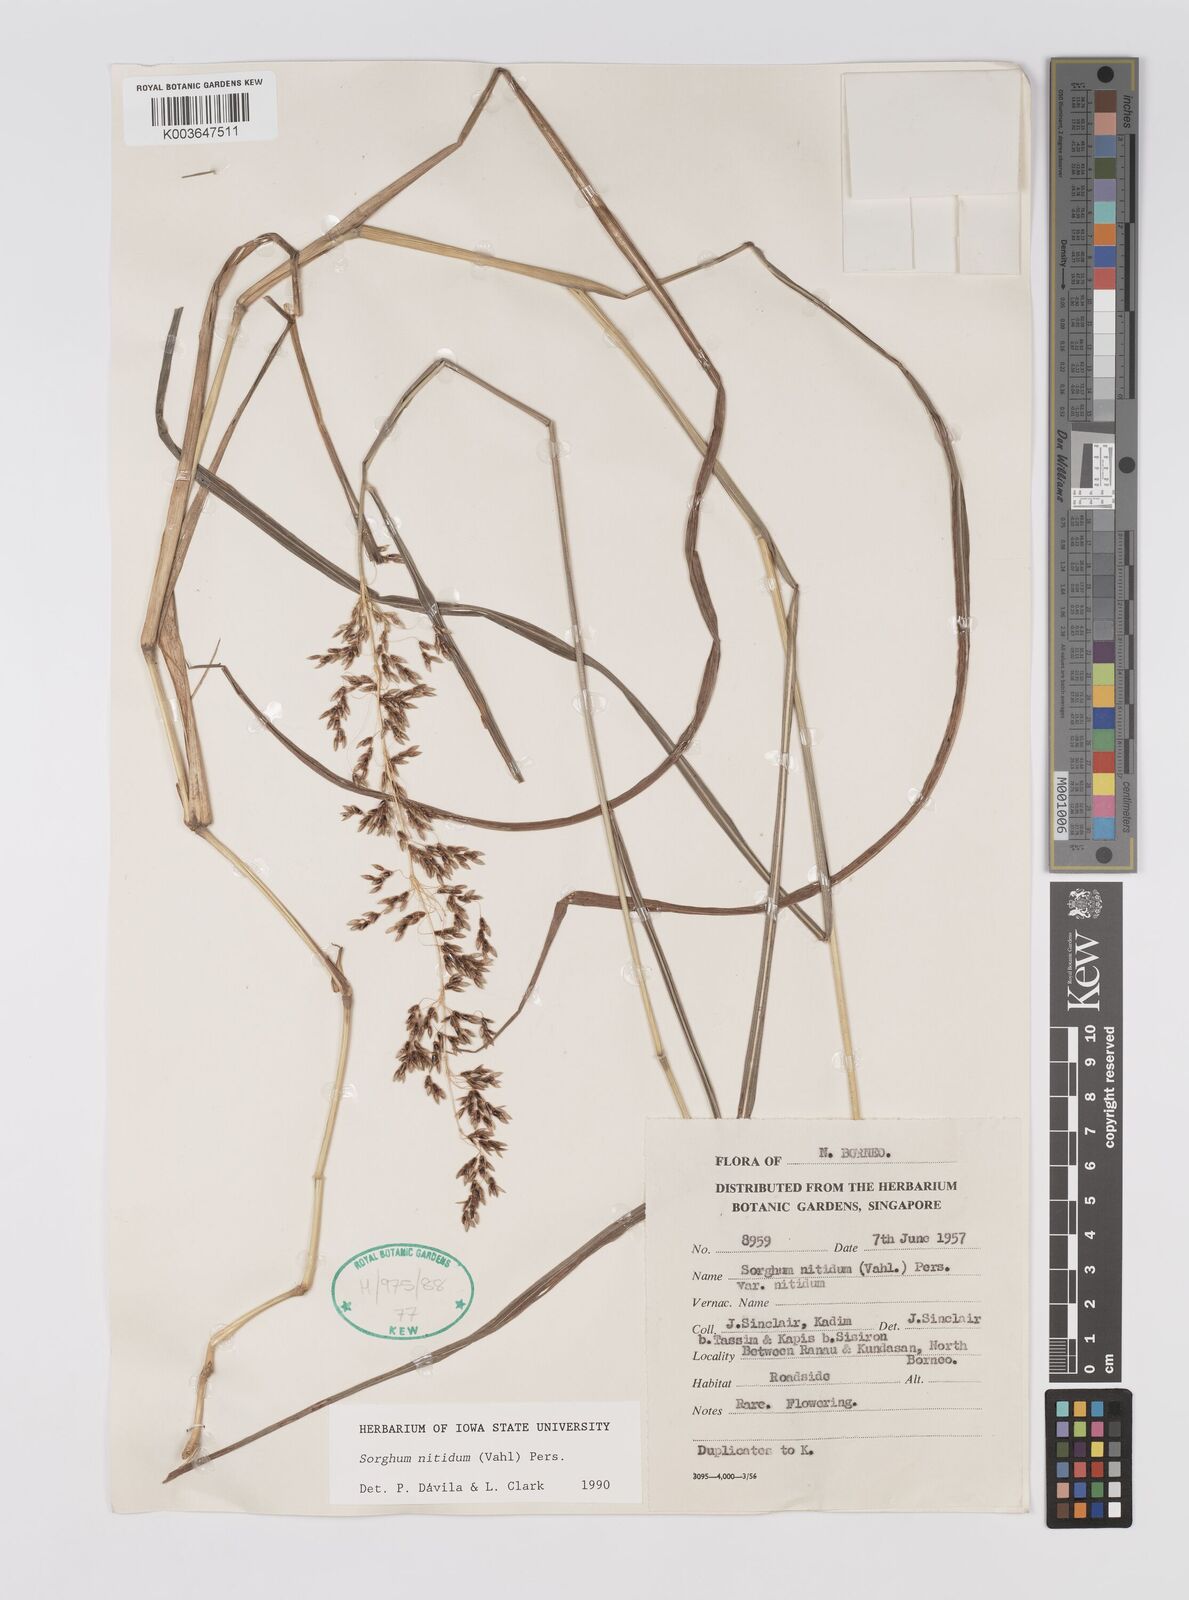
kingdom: Plantae
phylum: Tracheophyta
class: Liliopsida
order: Poales
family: Poaceae
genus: Sorghum
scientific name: Sorghum nitidum
